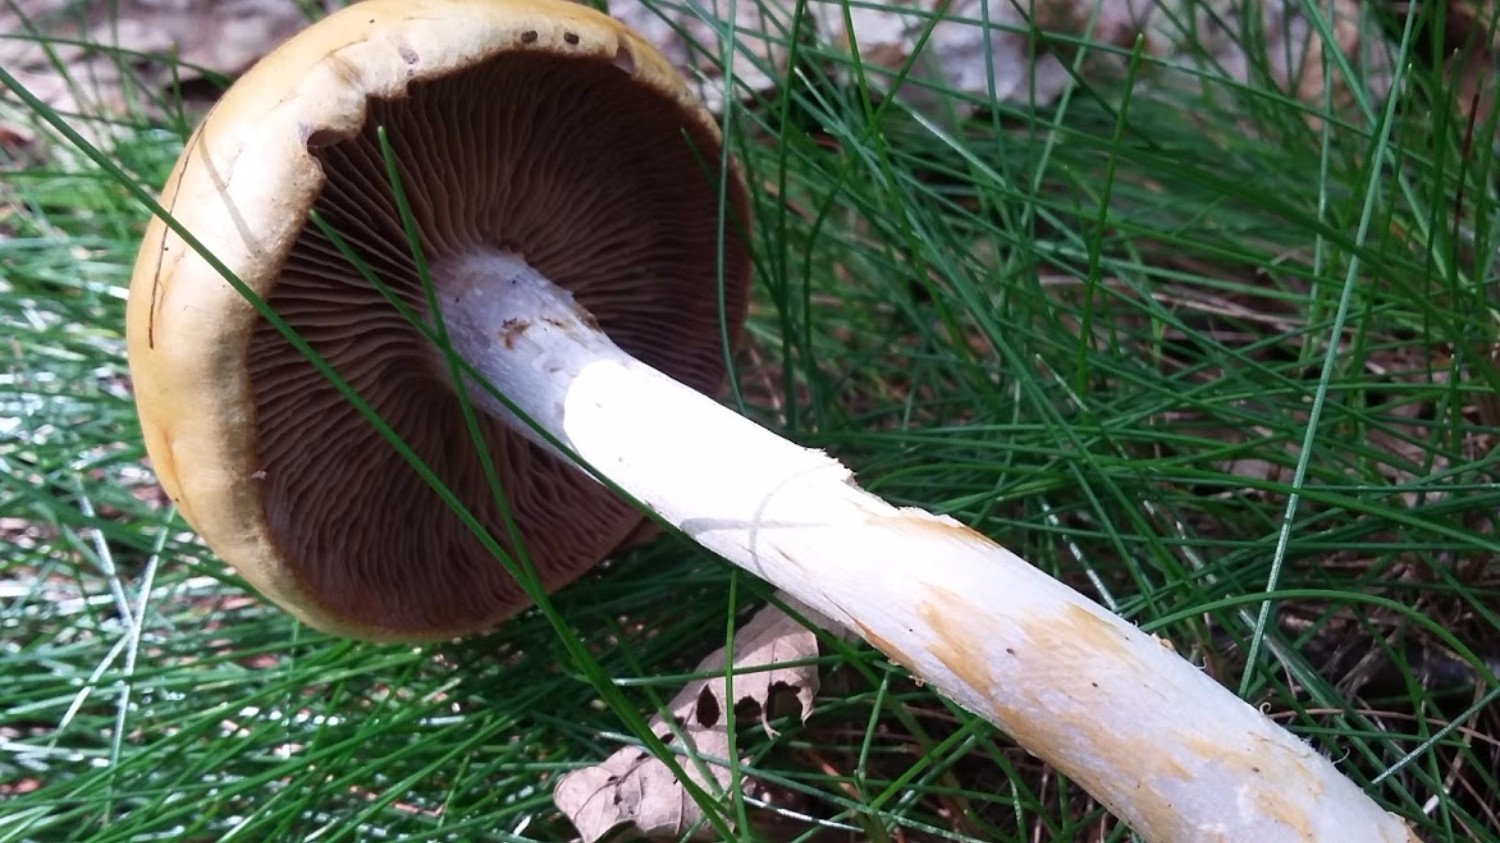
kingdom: Fungi
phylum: Basidiomycota
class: Agaricomycetes
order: Agaricales
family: Cortinariaceae
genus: Cortinarius
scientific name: Cortinarius
